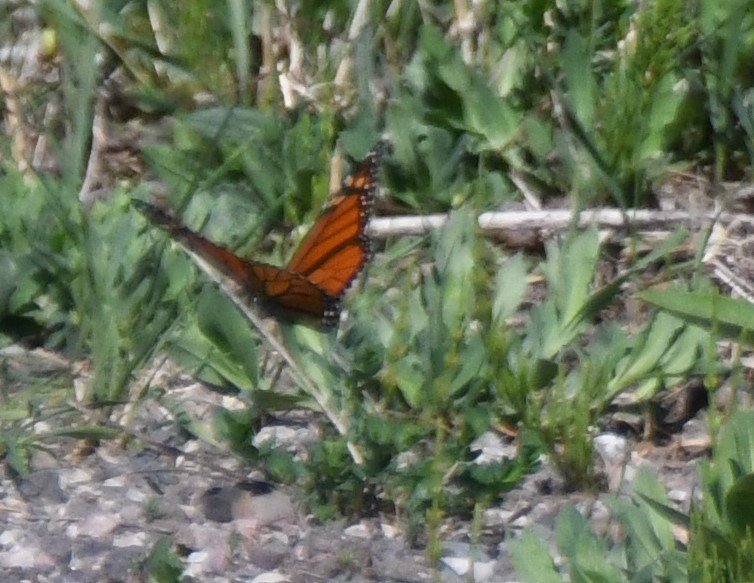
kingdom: Animalia
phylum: Arthropoda
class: Insecta
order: Lepidoptera
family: Nymphalidae
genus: Danaus
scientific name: Danaus plexippus
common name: Monarch
